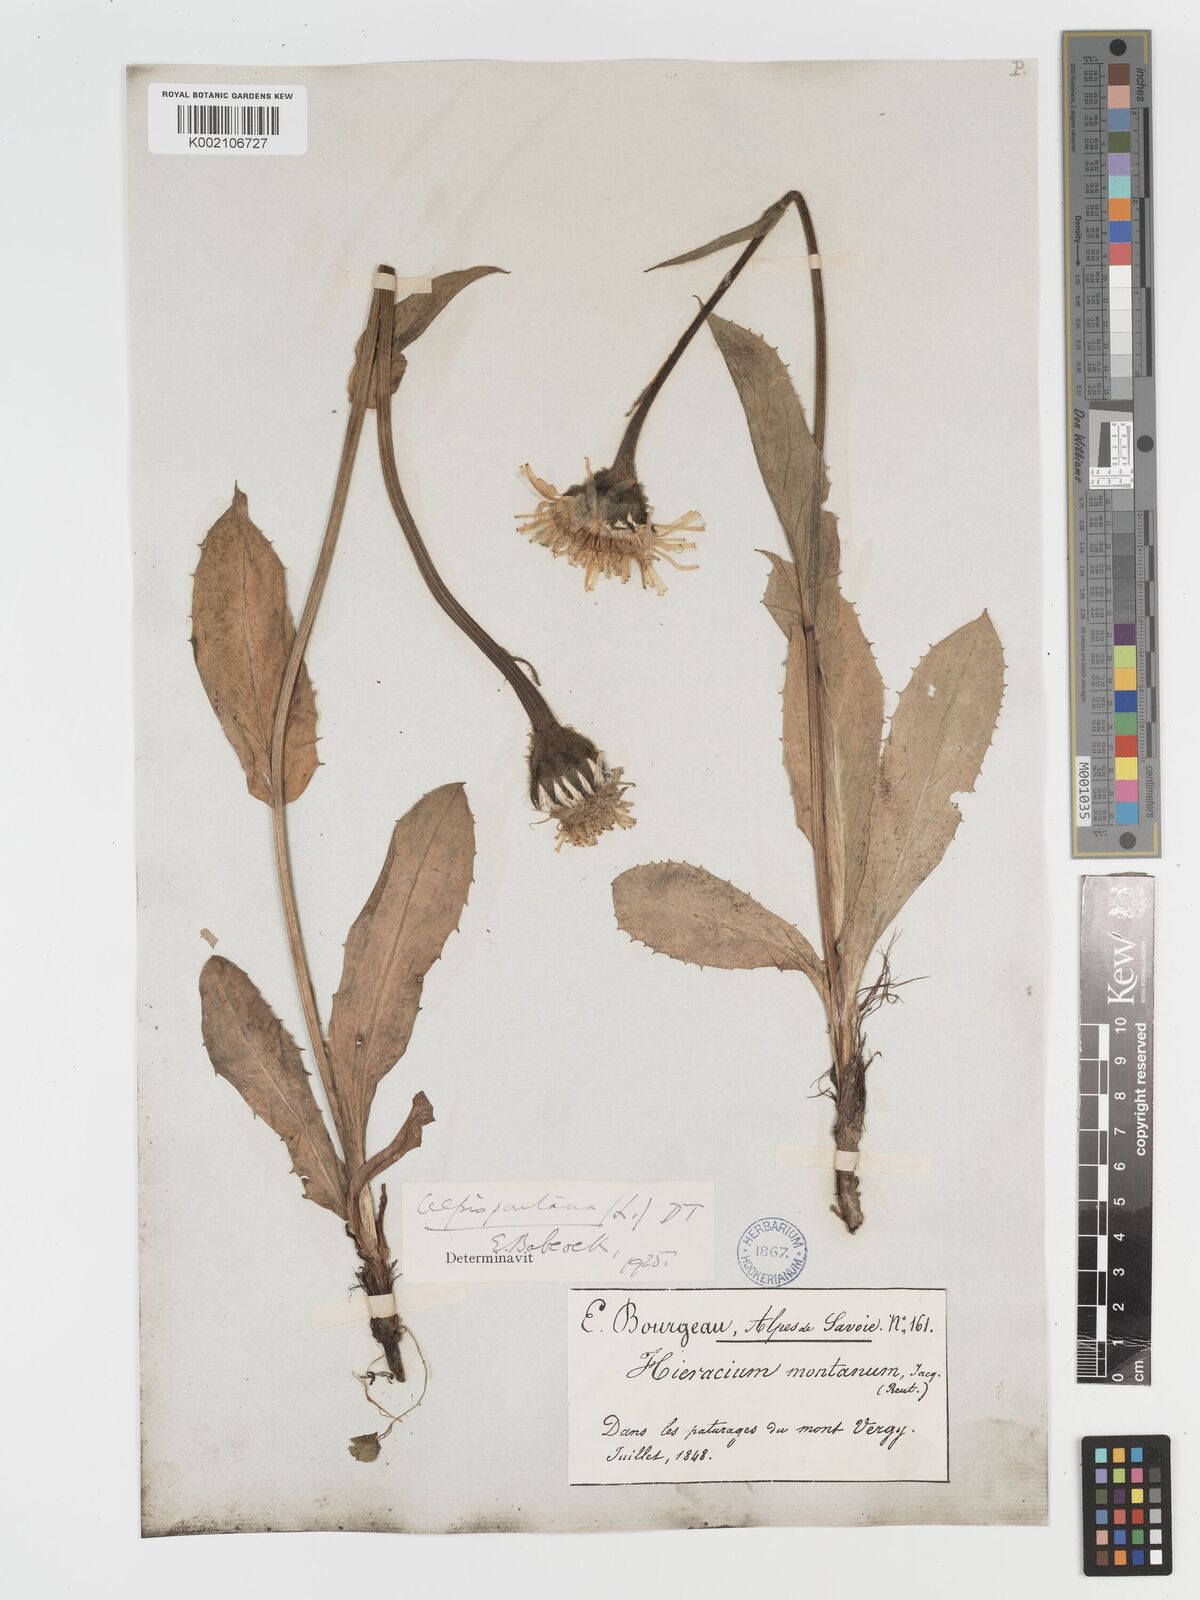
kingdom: Plantae
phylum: Tracheophyta
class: Magnoliopsida
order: Asterales
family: Asteraceae
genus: Crepis
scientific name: Crepis pontana
